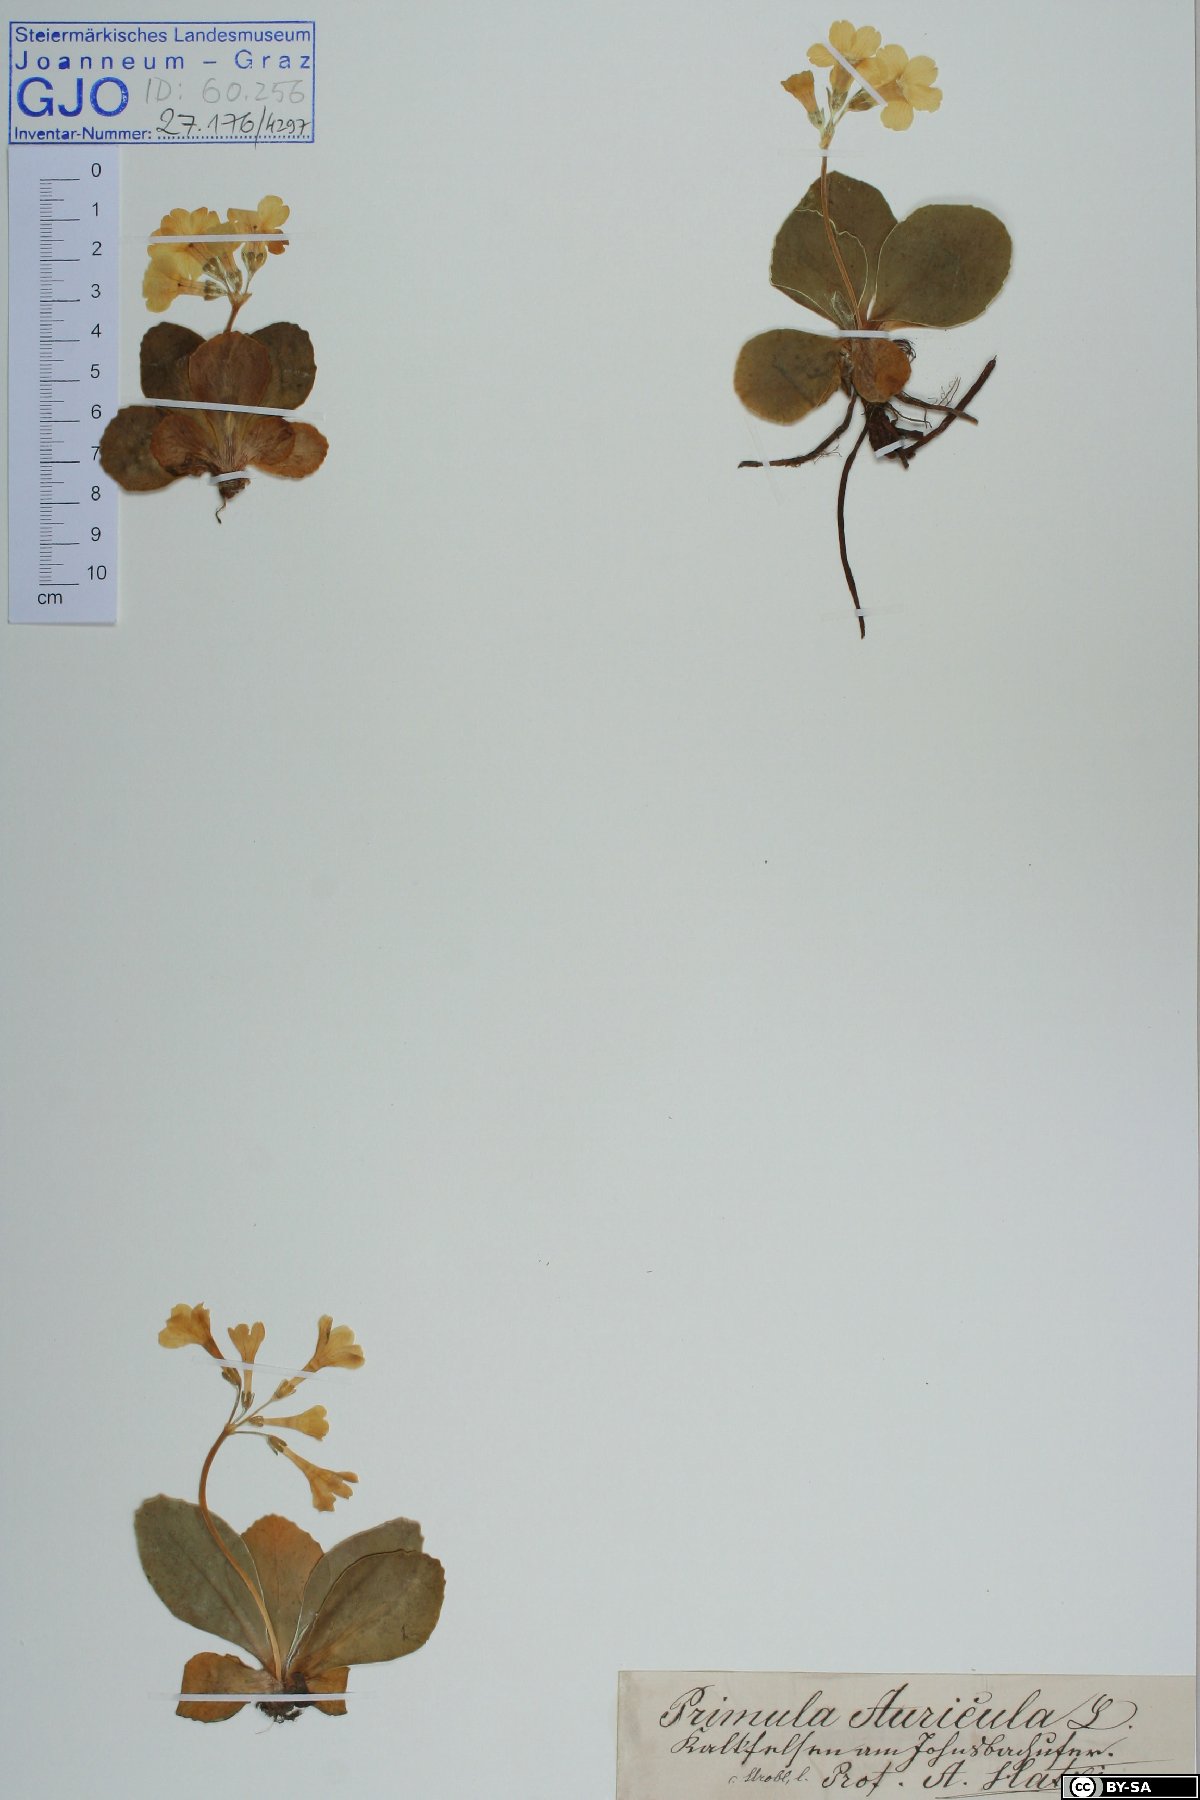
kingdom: Plantae
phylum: Tracheophyta
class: Magnoliopsida
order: Ericales
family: Primulaceae
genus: Primula
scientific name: Primula auricula
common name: Auricula
